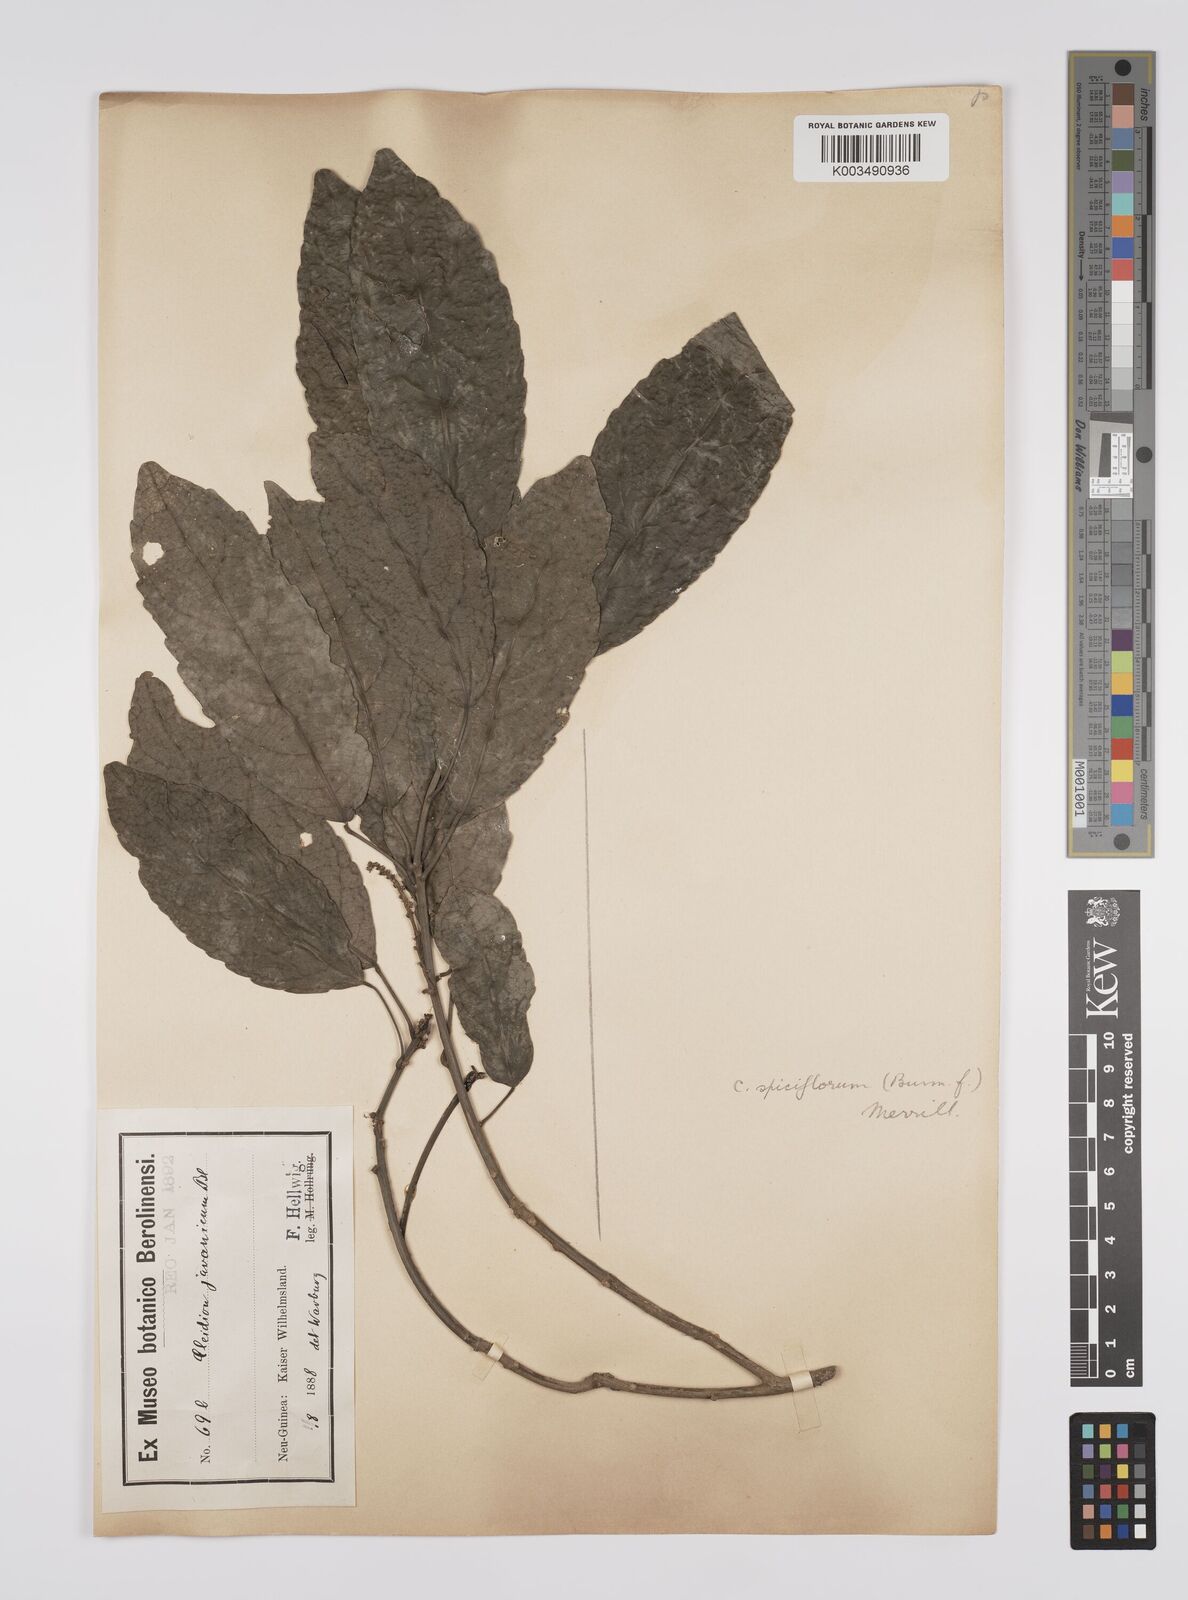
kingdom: Plantae
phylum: Tracheophyta
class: Magnoliopsida
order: Malpighiales
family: Euphorbiaceae
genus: Cleidion
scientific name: Cleidion javanicum
